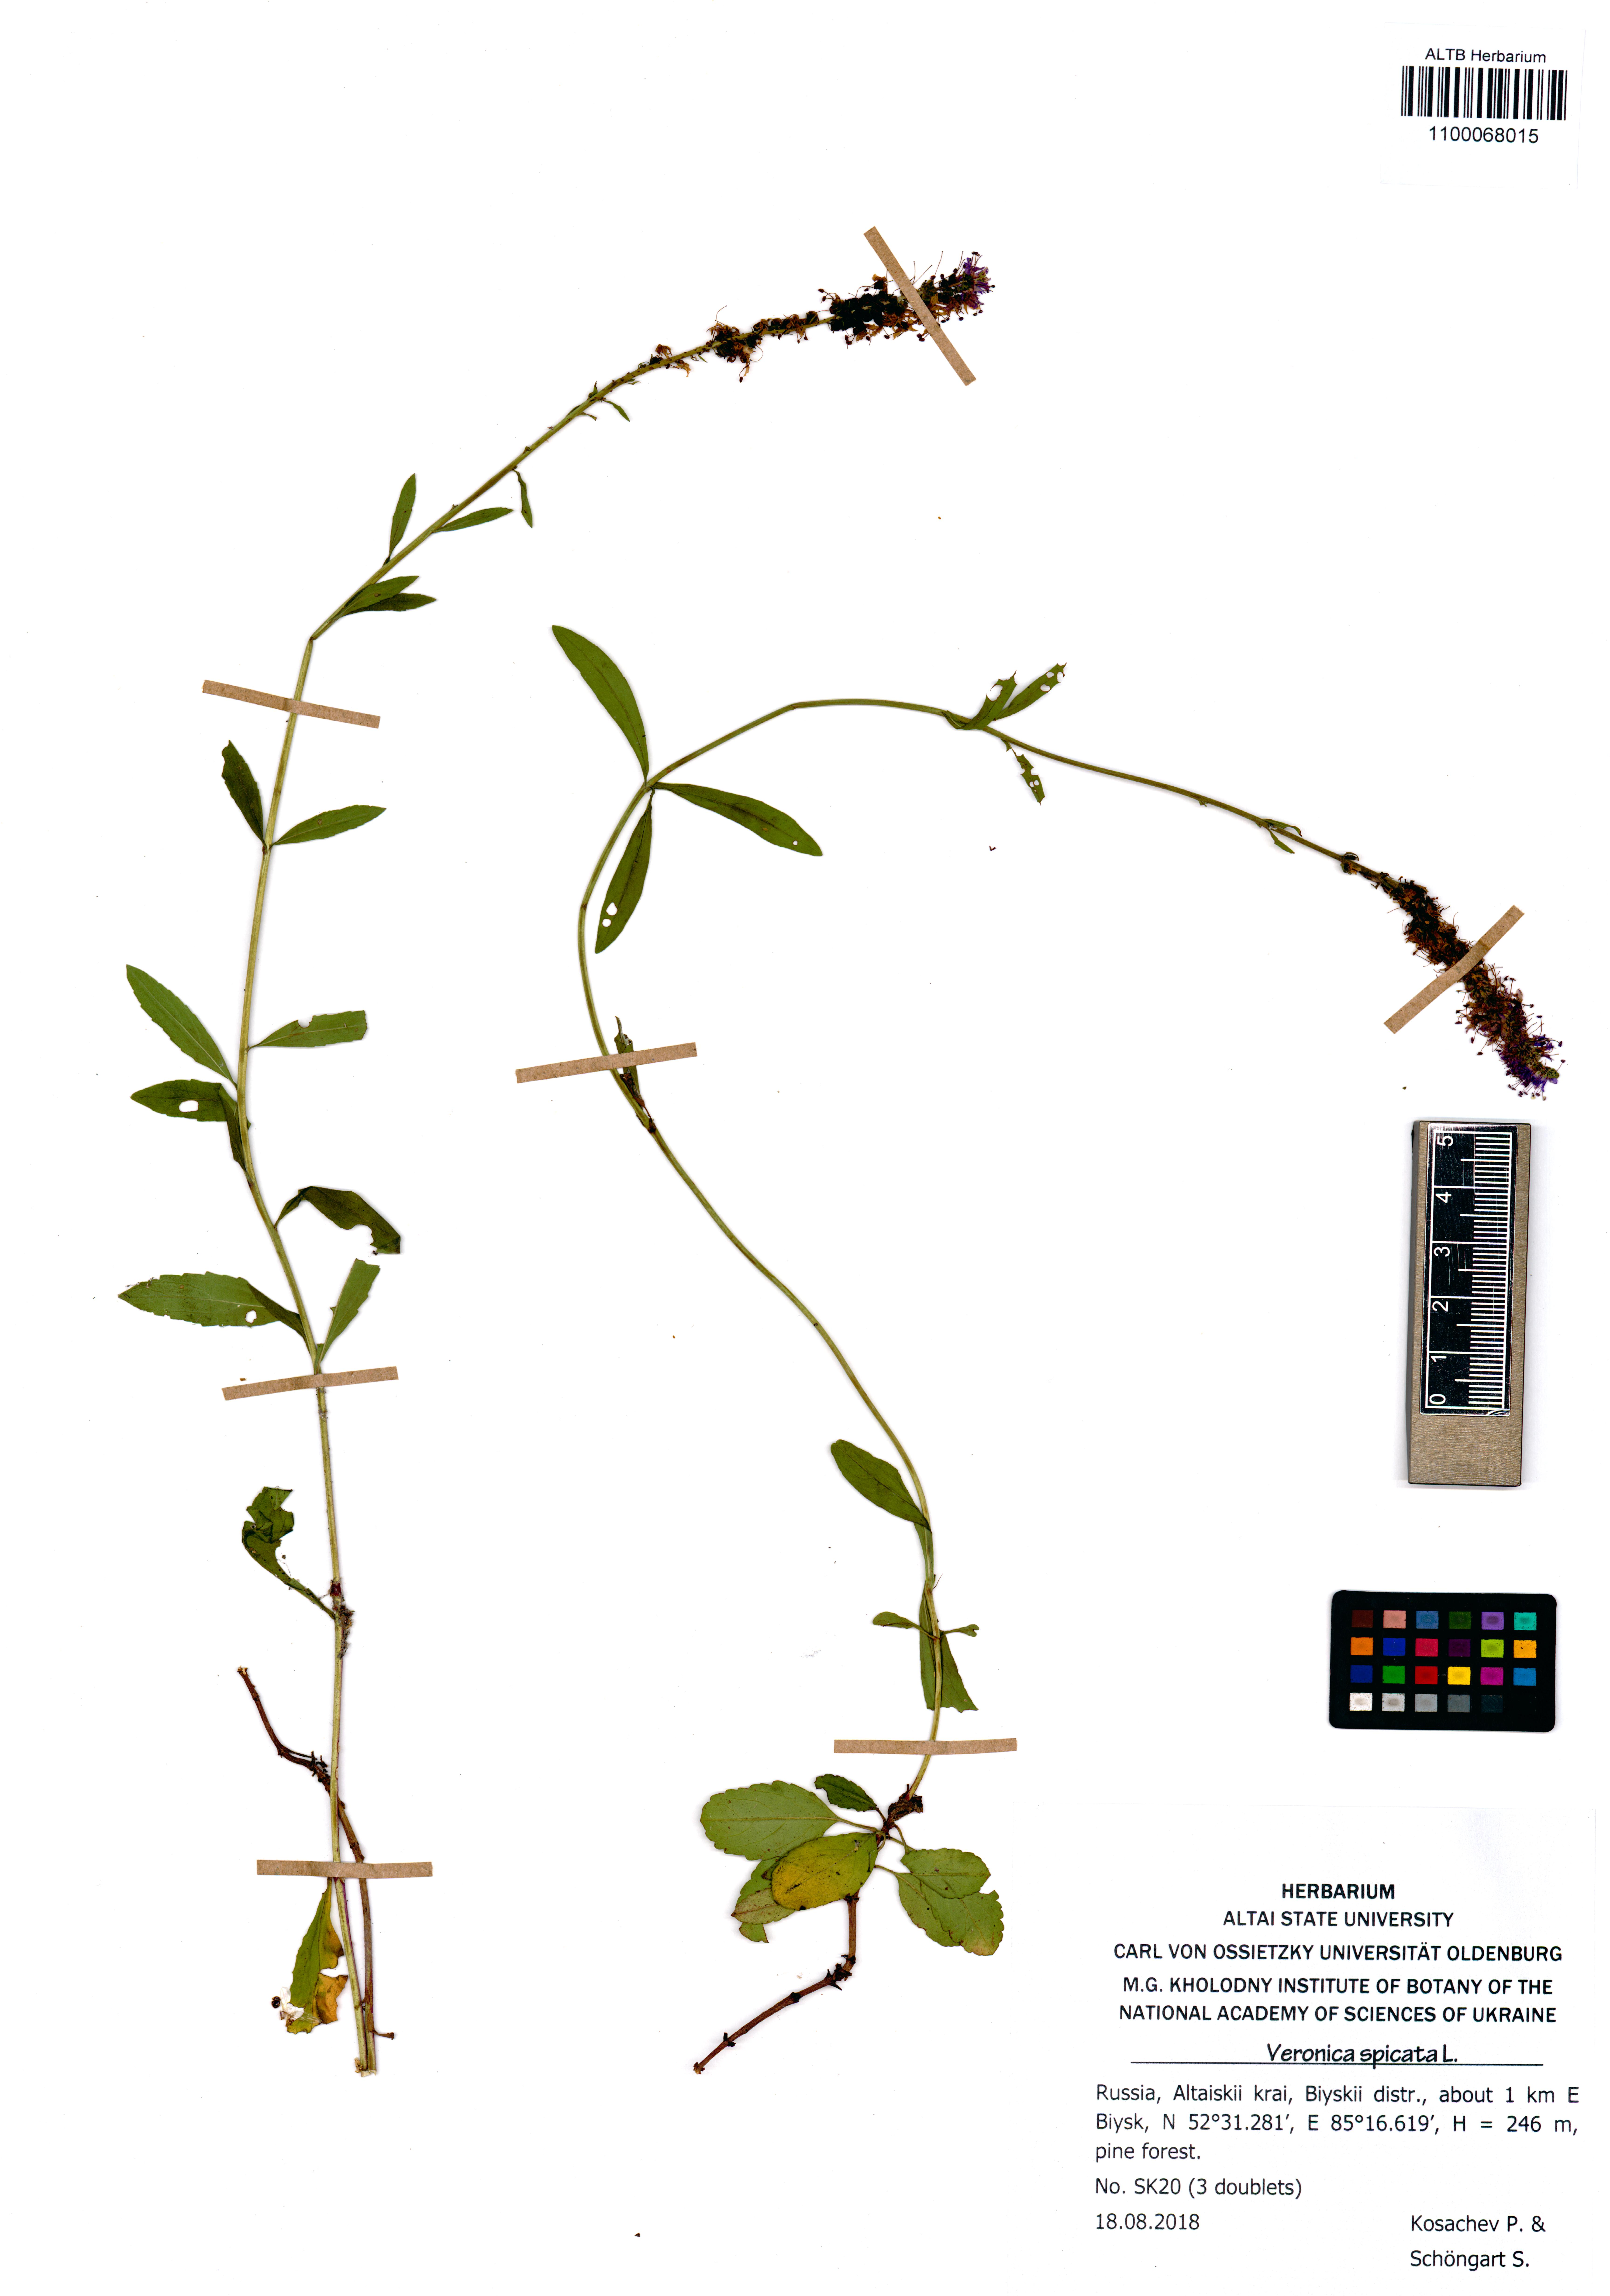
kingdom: Plantae
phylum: Tracheophyta
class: Magnoliopsida
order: Lamiales
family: Plantaginaceae
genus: Veronica
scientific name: Veronica spicata
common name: Spiked speedwell
